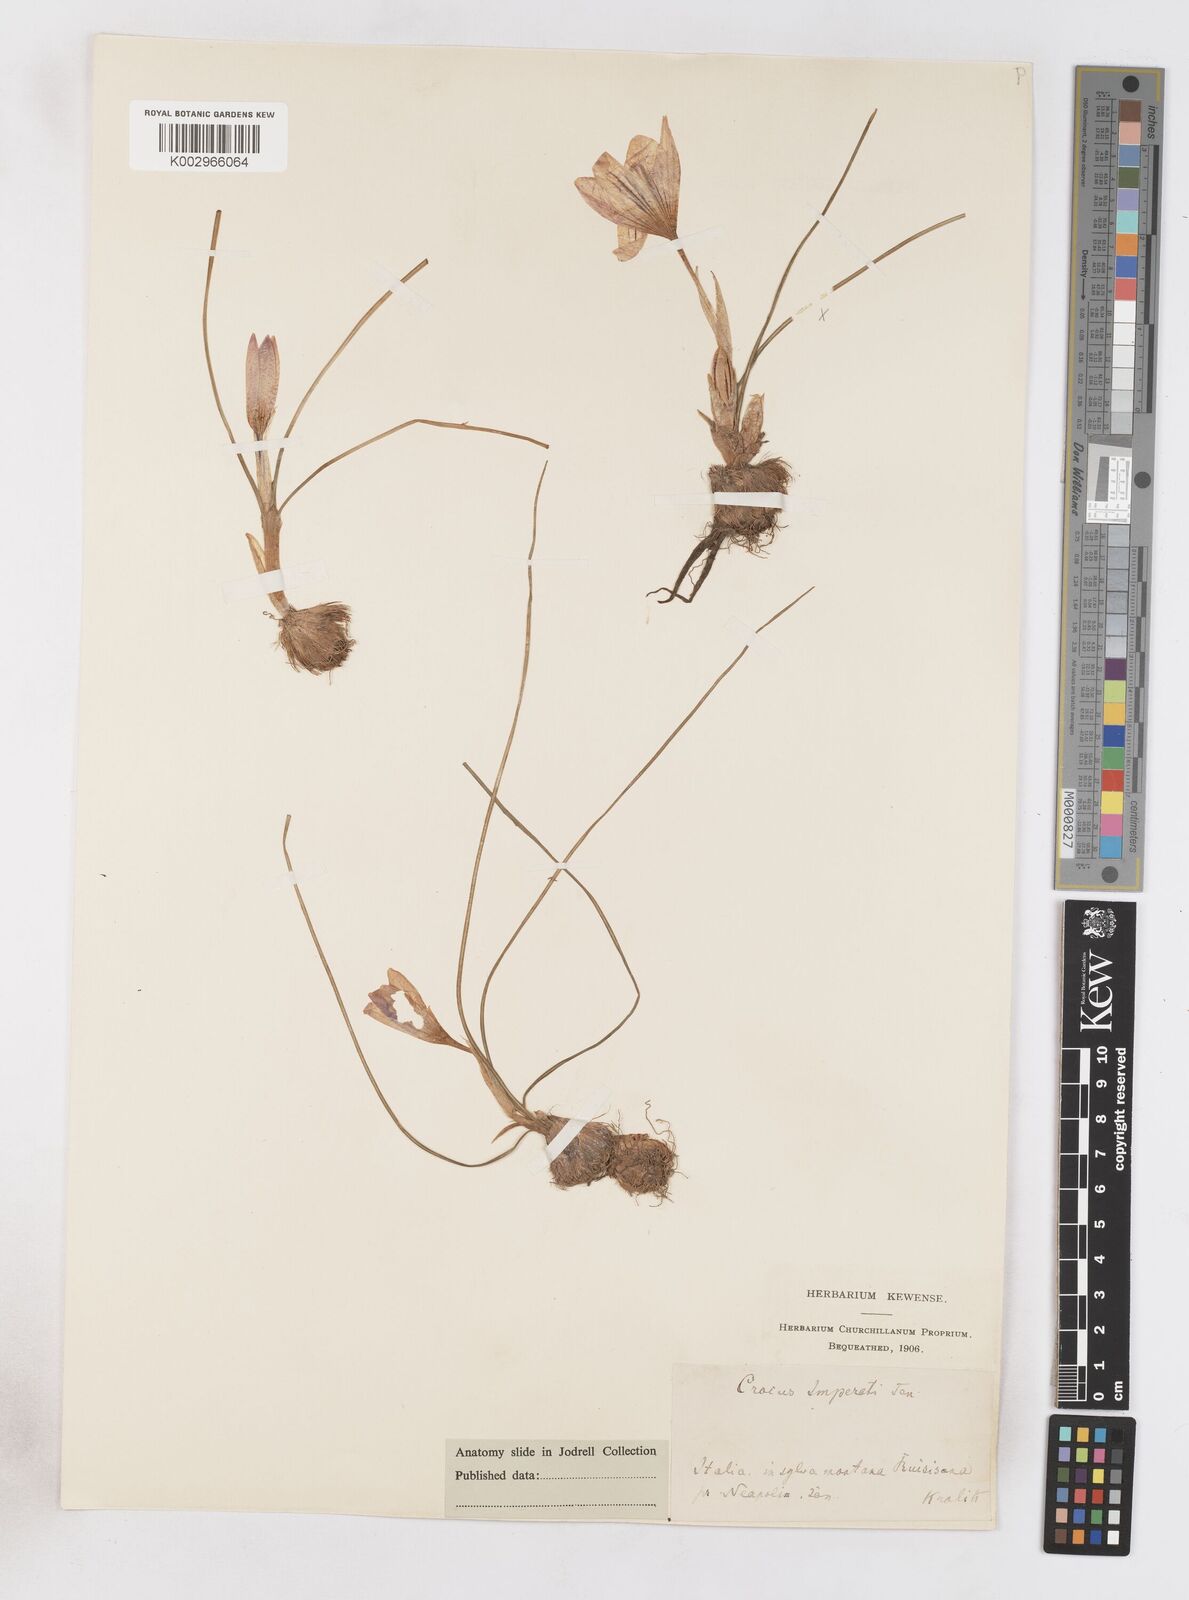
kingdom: Plantae
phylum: Tracheophyta
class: Liliopsida
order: Asparagales
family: Iridaceae
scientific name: Iridaceae
